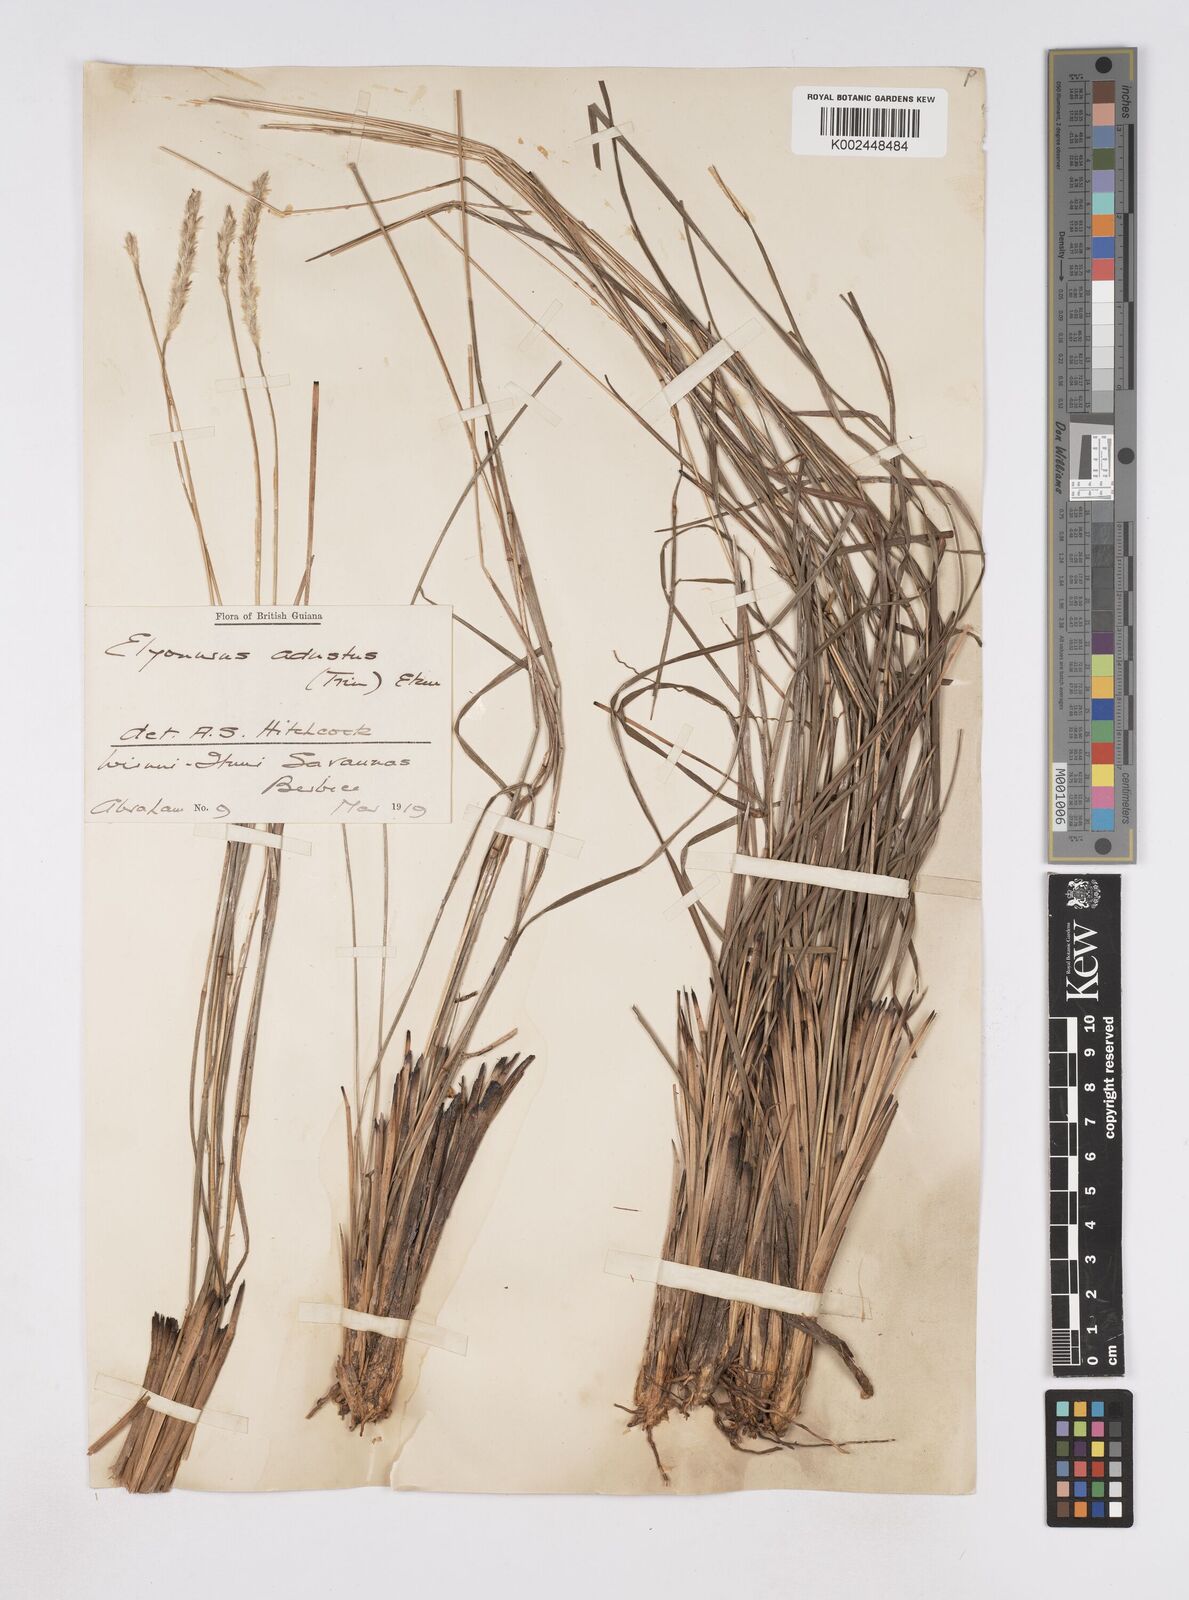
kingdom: Plantae
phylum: Tracheophyta
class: Liliopsida
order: Poales
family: Poaceae
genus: Elionurus
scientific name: Elionurus planifolius
